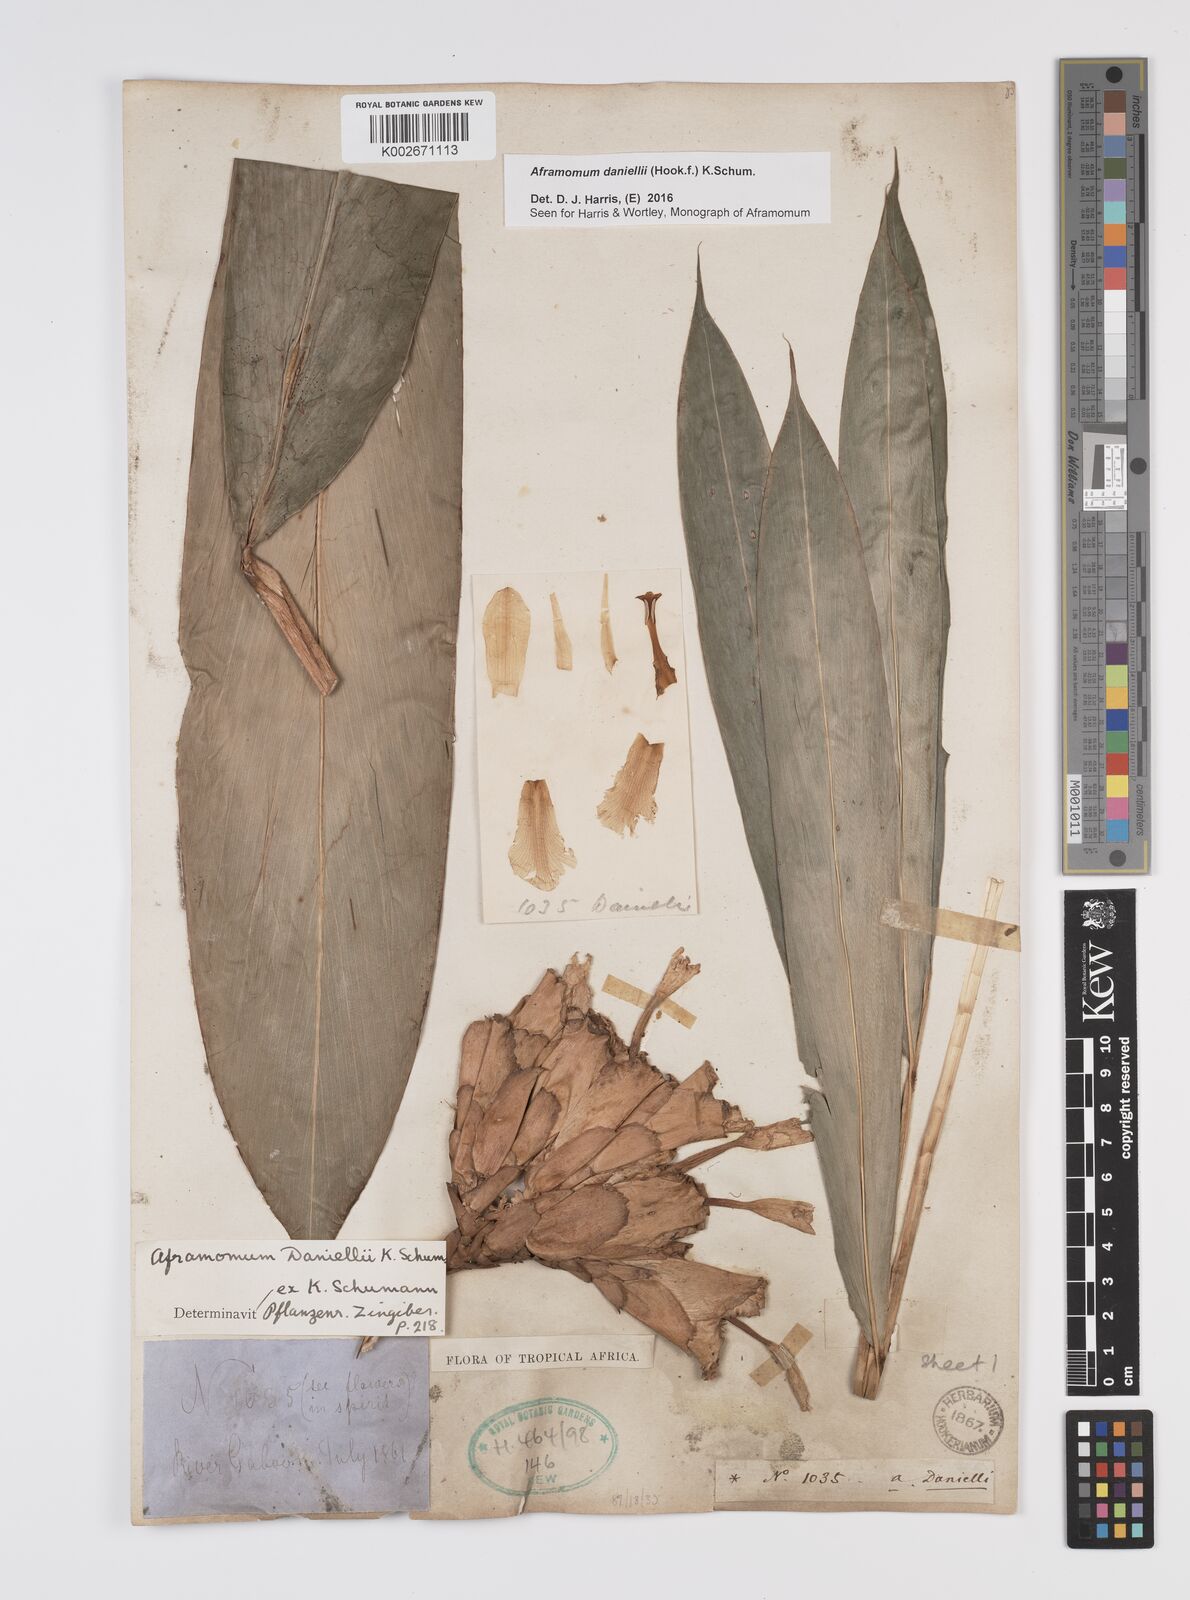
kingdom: Plantae
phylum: Tracheophyta
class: Liliopsida
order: Zingiberales
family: Zingiberaceae
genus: Aframomum
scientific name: Aframomum daniellii
